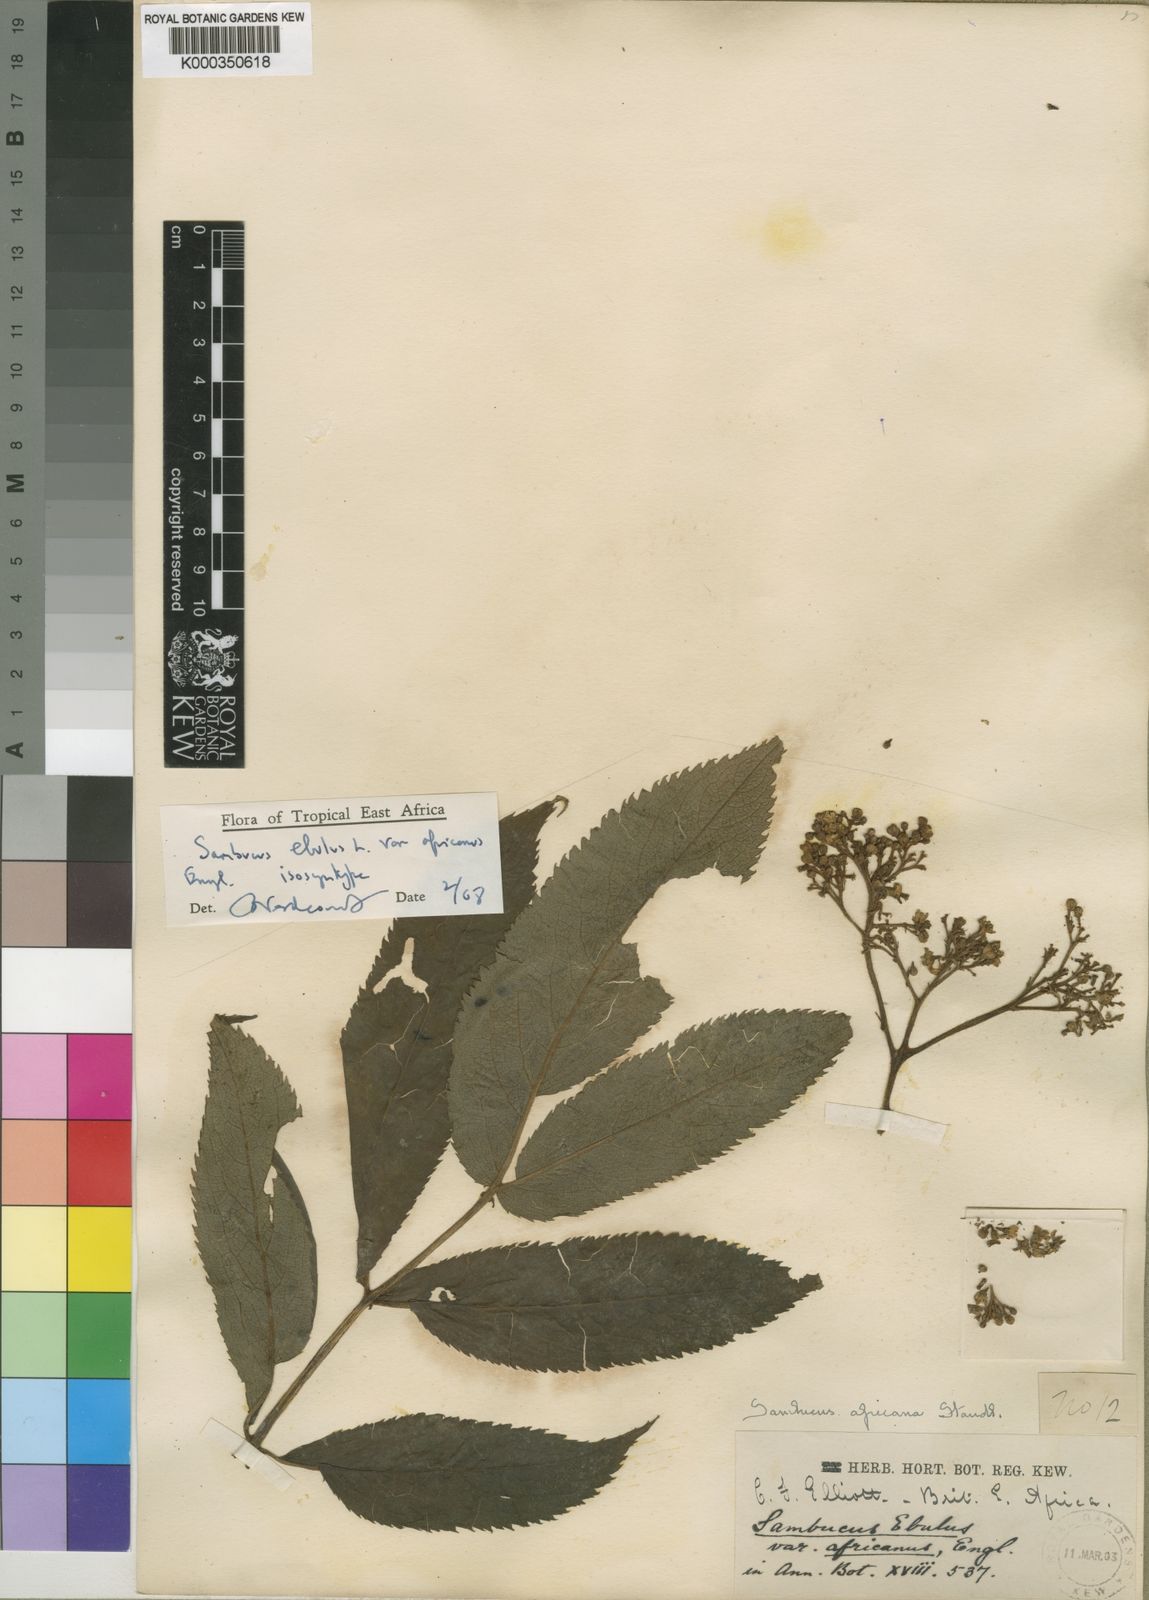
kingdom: Plantae
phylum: Tracheophyta
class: Magnoliopsida
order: Dipsacales
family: Viburnaceae
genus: Sambucus
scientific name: Sambucus africana
